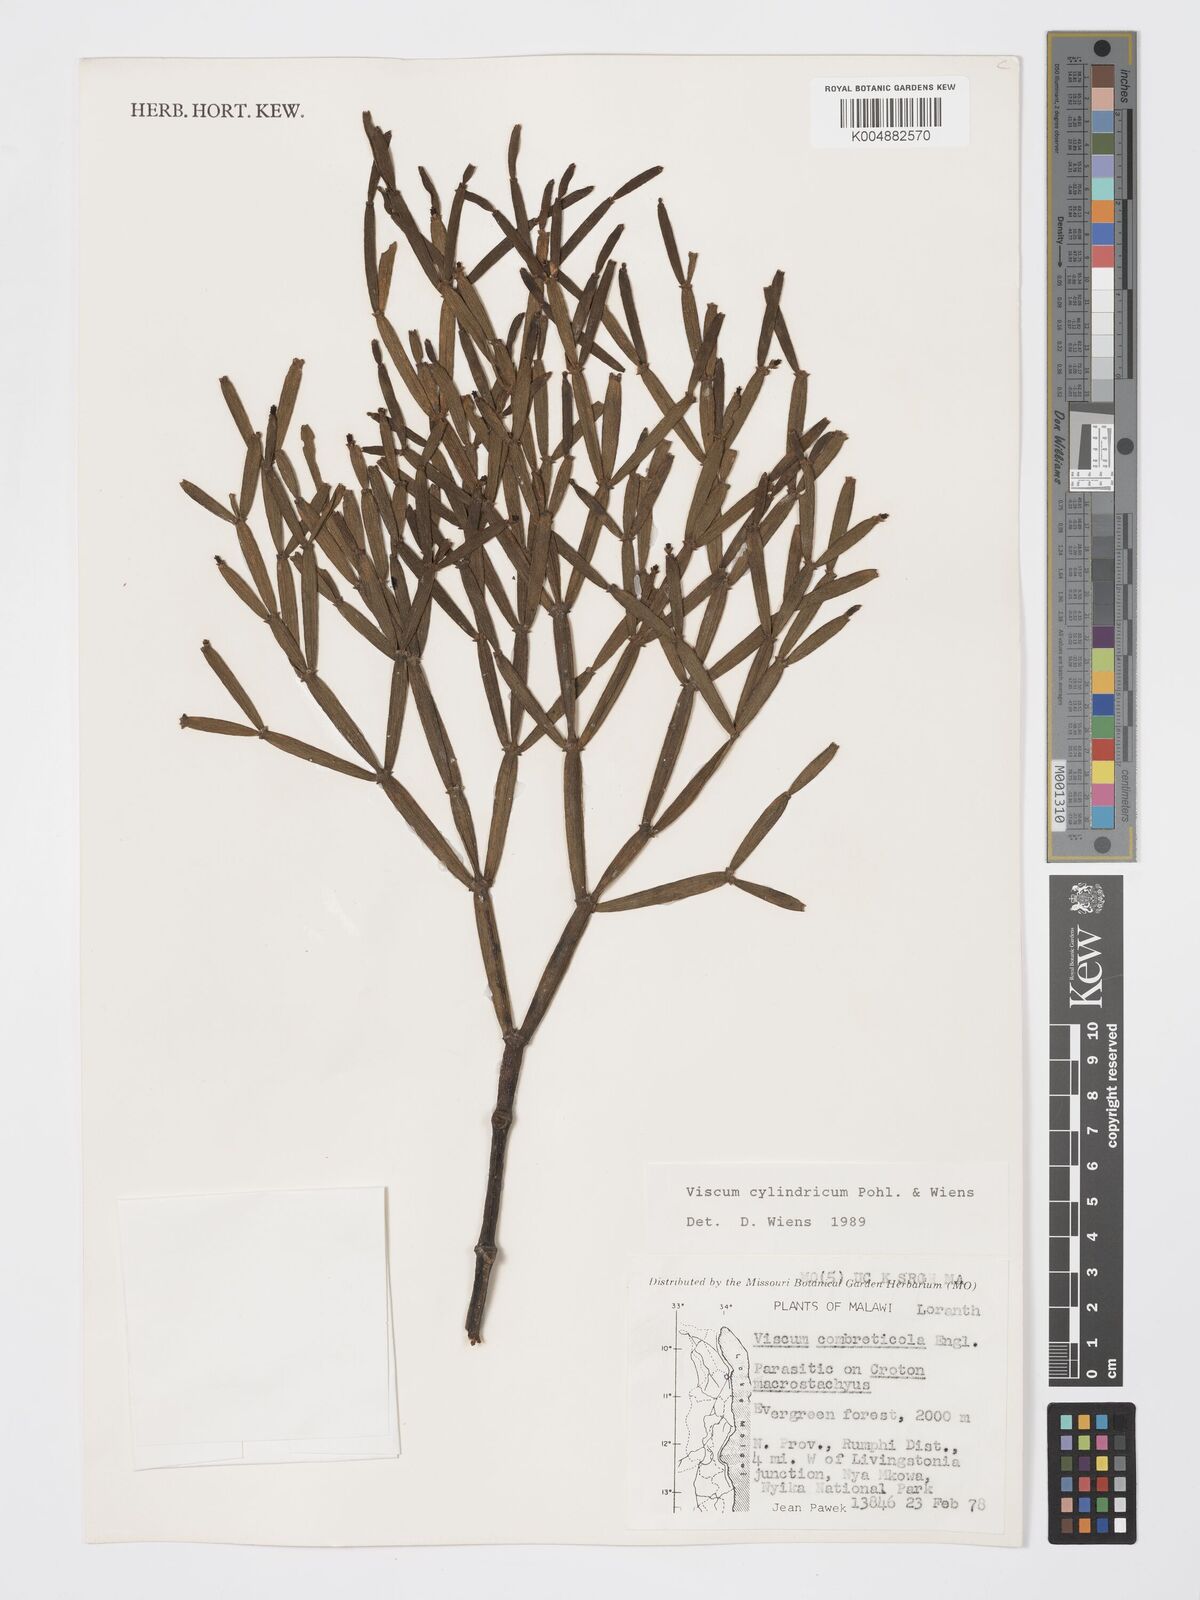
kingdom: Plantae
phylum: Tracheophyta
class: Magnoliopsida
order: Santalales
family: Viscaceae
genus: Viscum
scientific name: Viscum cylindricum
